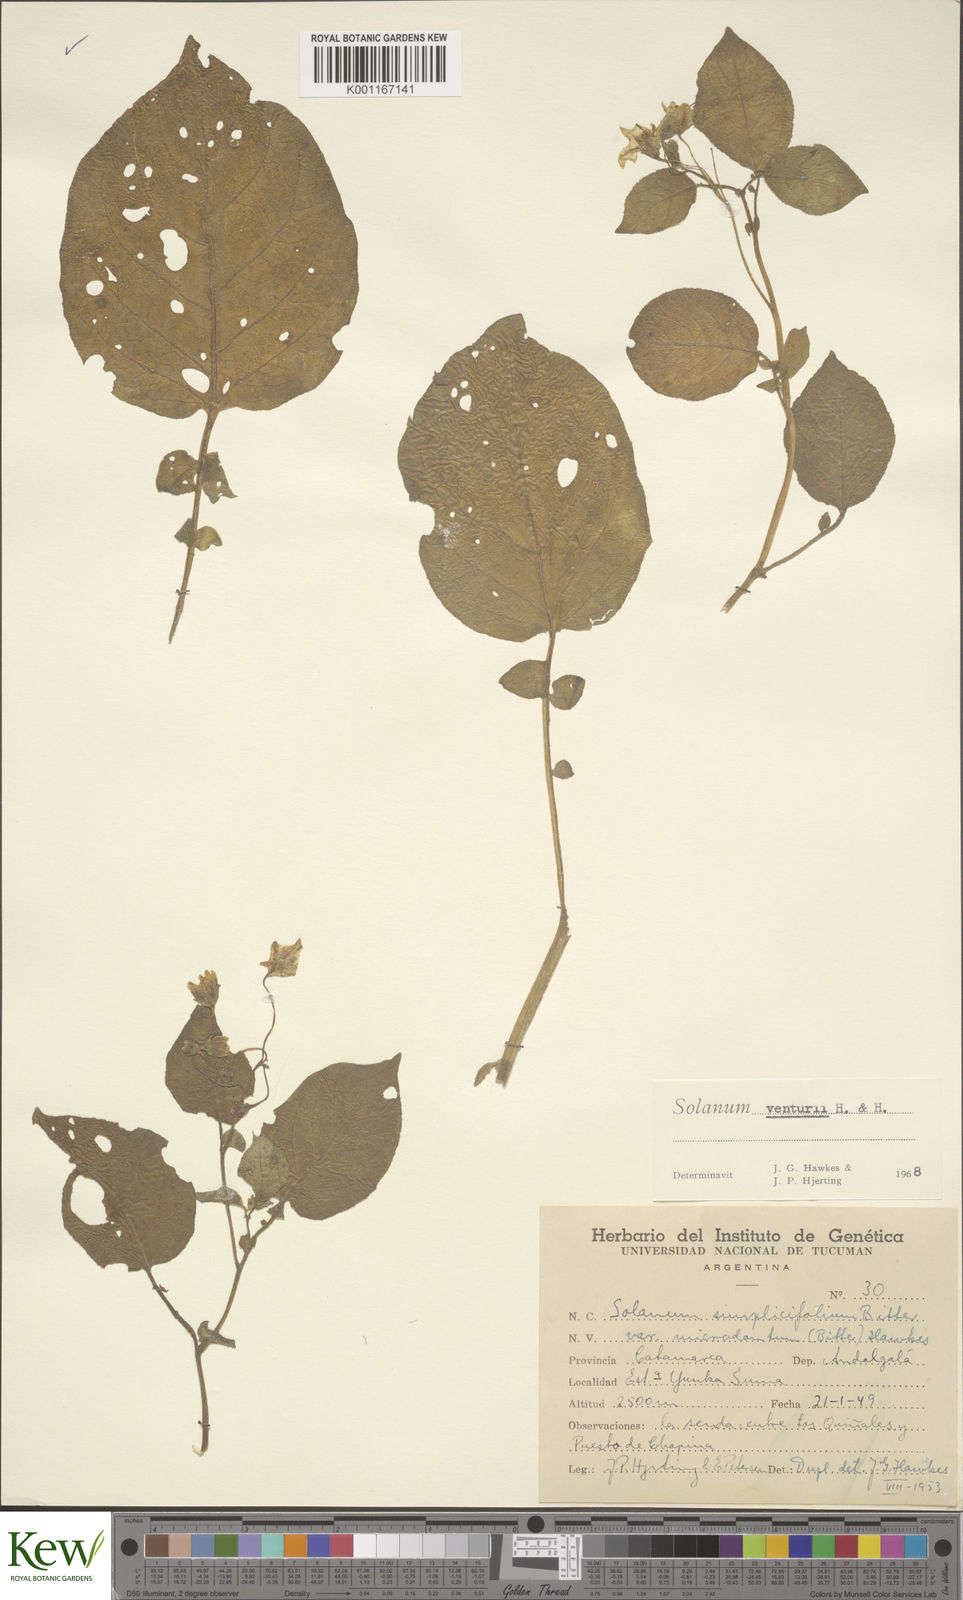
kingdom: Plantae
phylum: Tracheophyta
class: Magnoliopsida
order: Solanales
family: Solanaceae
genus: Solanum
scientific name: Solanum venturii
